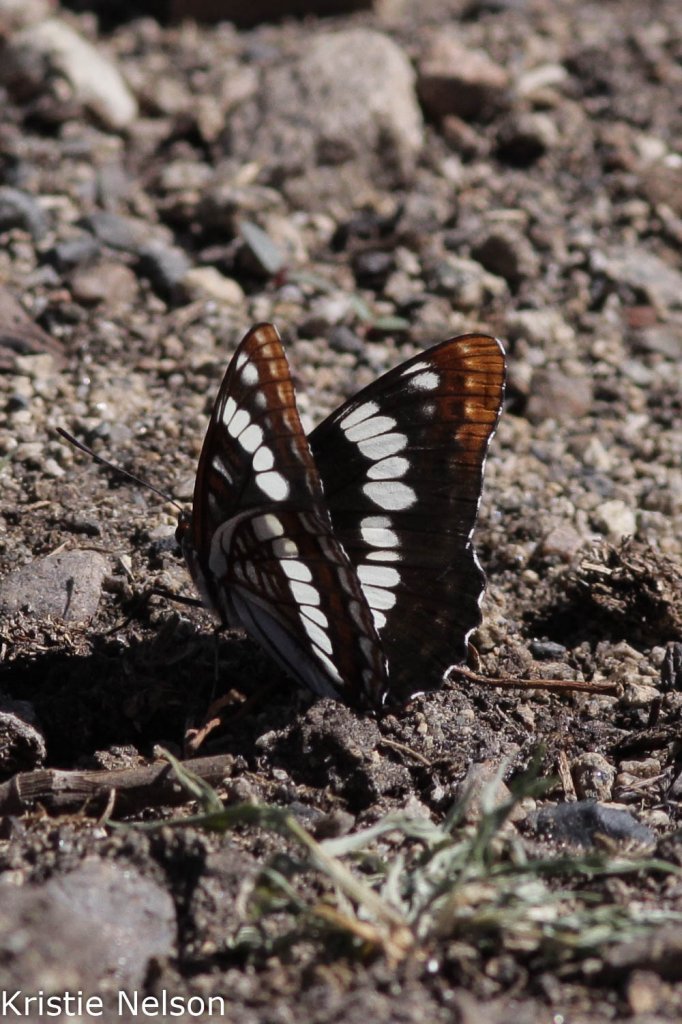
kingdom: Animalia
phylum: Arthropoda
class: Insecta
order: Lepidoptera
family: Nymphalidae
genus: Limenitis
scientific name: Limenitis
